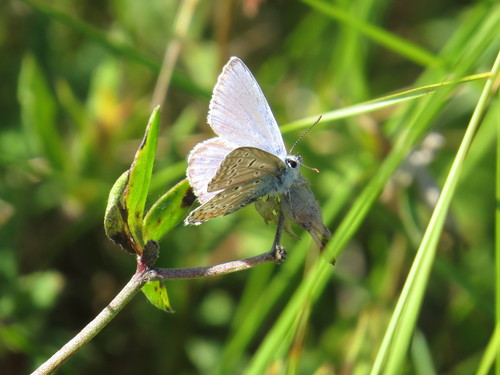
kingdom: Animalia
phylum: Arthropoda
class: Insecta
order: Lepidoptera
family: Lycaenidae
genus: Polyommatus
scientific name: Polyommatus icarus
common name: Common blue
